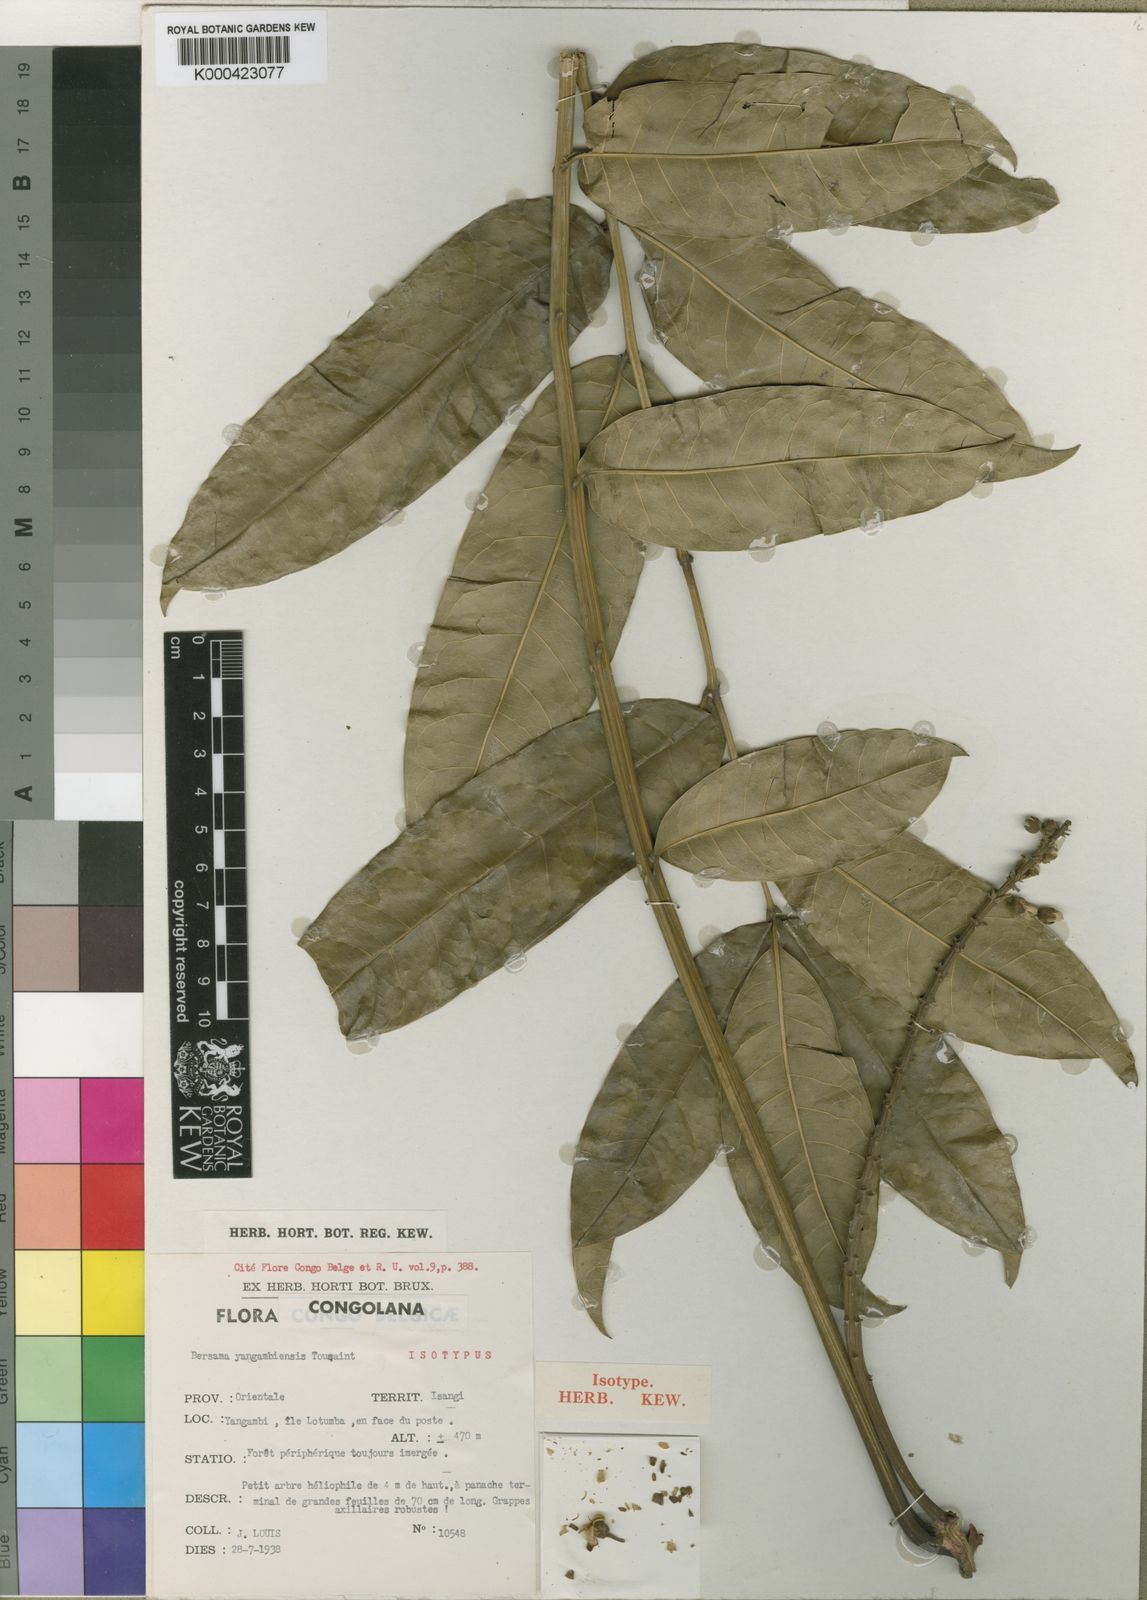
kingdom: Plantae
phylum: Tracheophyta
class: Magnoliopsida
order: Geraniales
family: Melianthaceae
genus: Bersama
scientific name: Bersama yangambiensis
